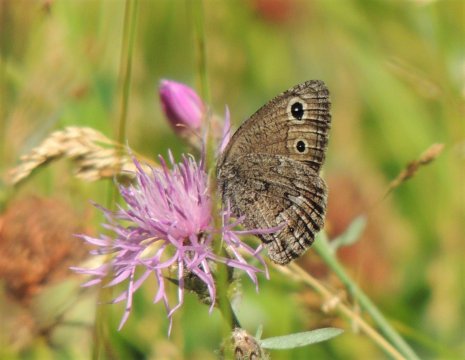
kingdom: Animalia
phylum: Arthropoda
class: Insecta
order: Lepidoptera
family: Nymphalidae
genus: Cercyonis
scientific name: Cercyonis oetus
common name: Small Wood-Nymph
